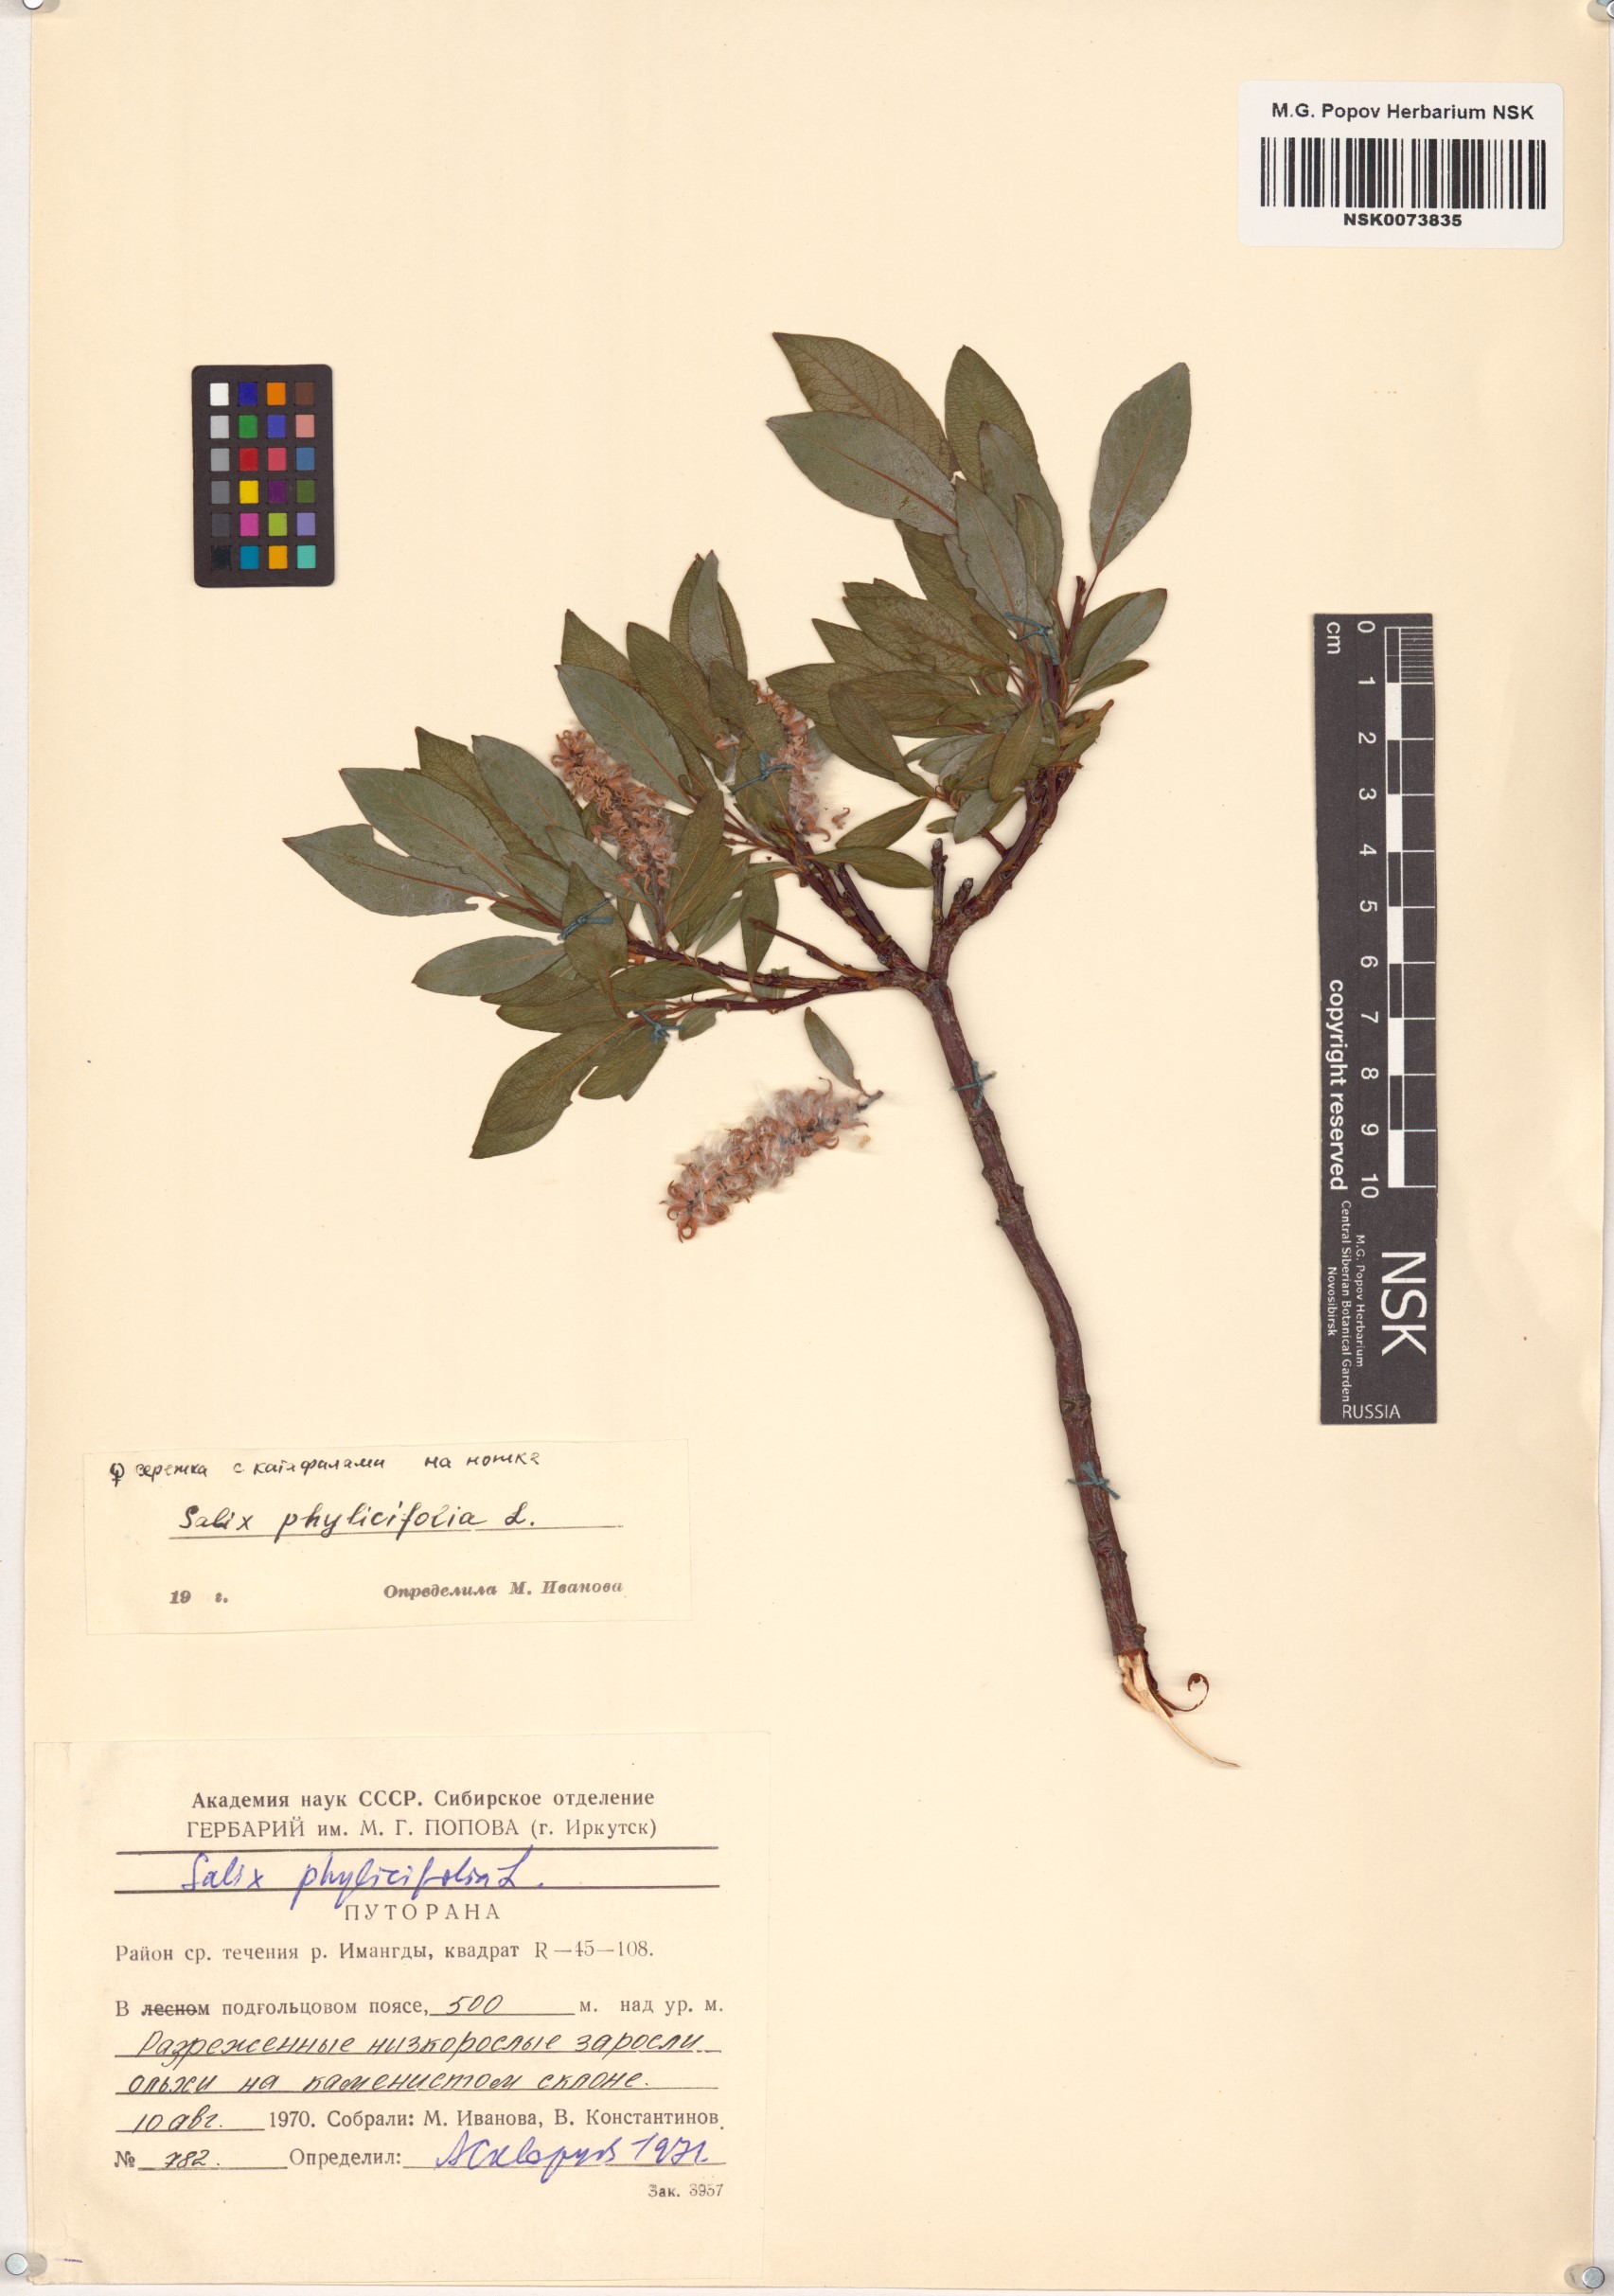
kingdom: Plantae
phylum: Tracheophyta
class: Magnoliopsida
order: Malpighiales
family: Salicaceae
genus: Salix
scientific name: Salix phylicifolia
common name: Tea-leaved willow
